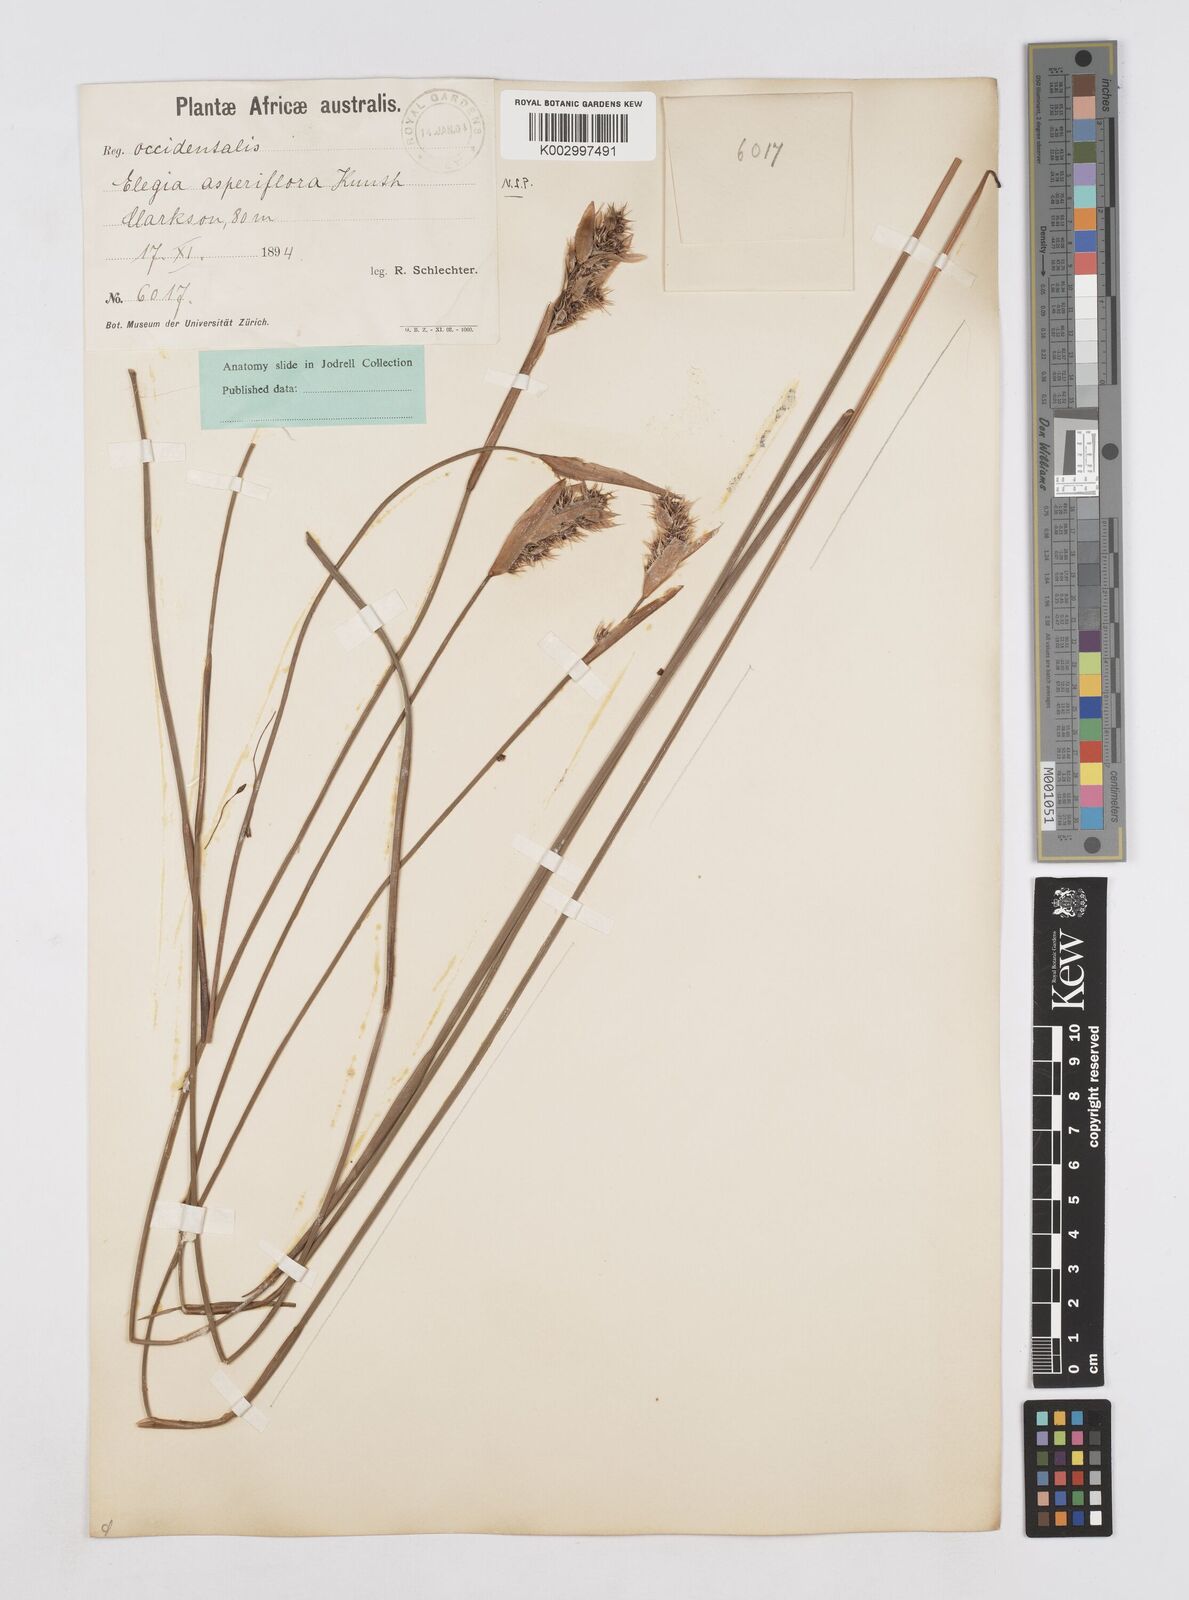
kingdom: Plantae
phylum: Tracheophyta
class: Liliopsida
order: Poales
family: Restionaceae
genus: Elegia
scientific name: Elegia asperiflora
